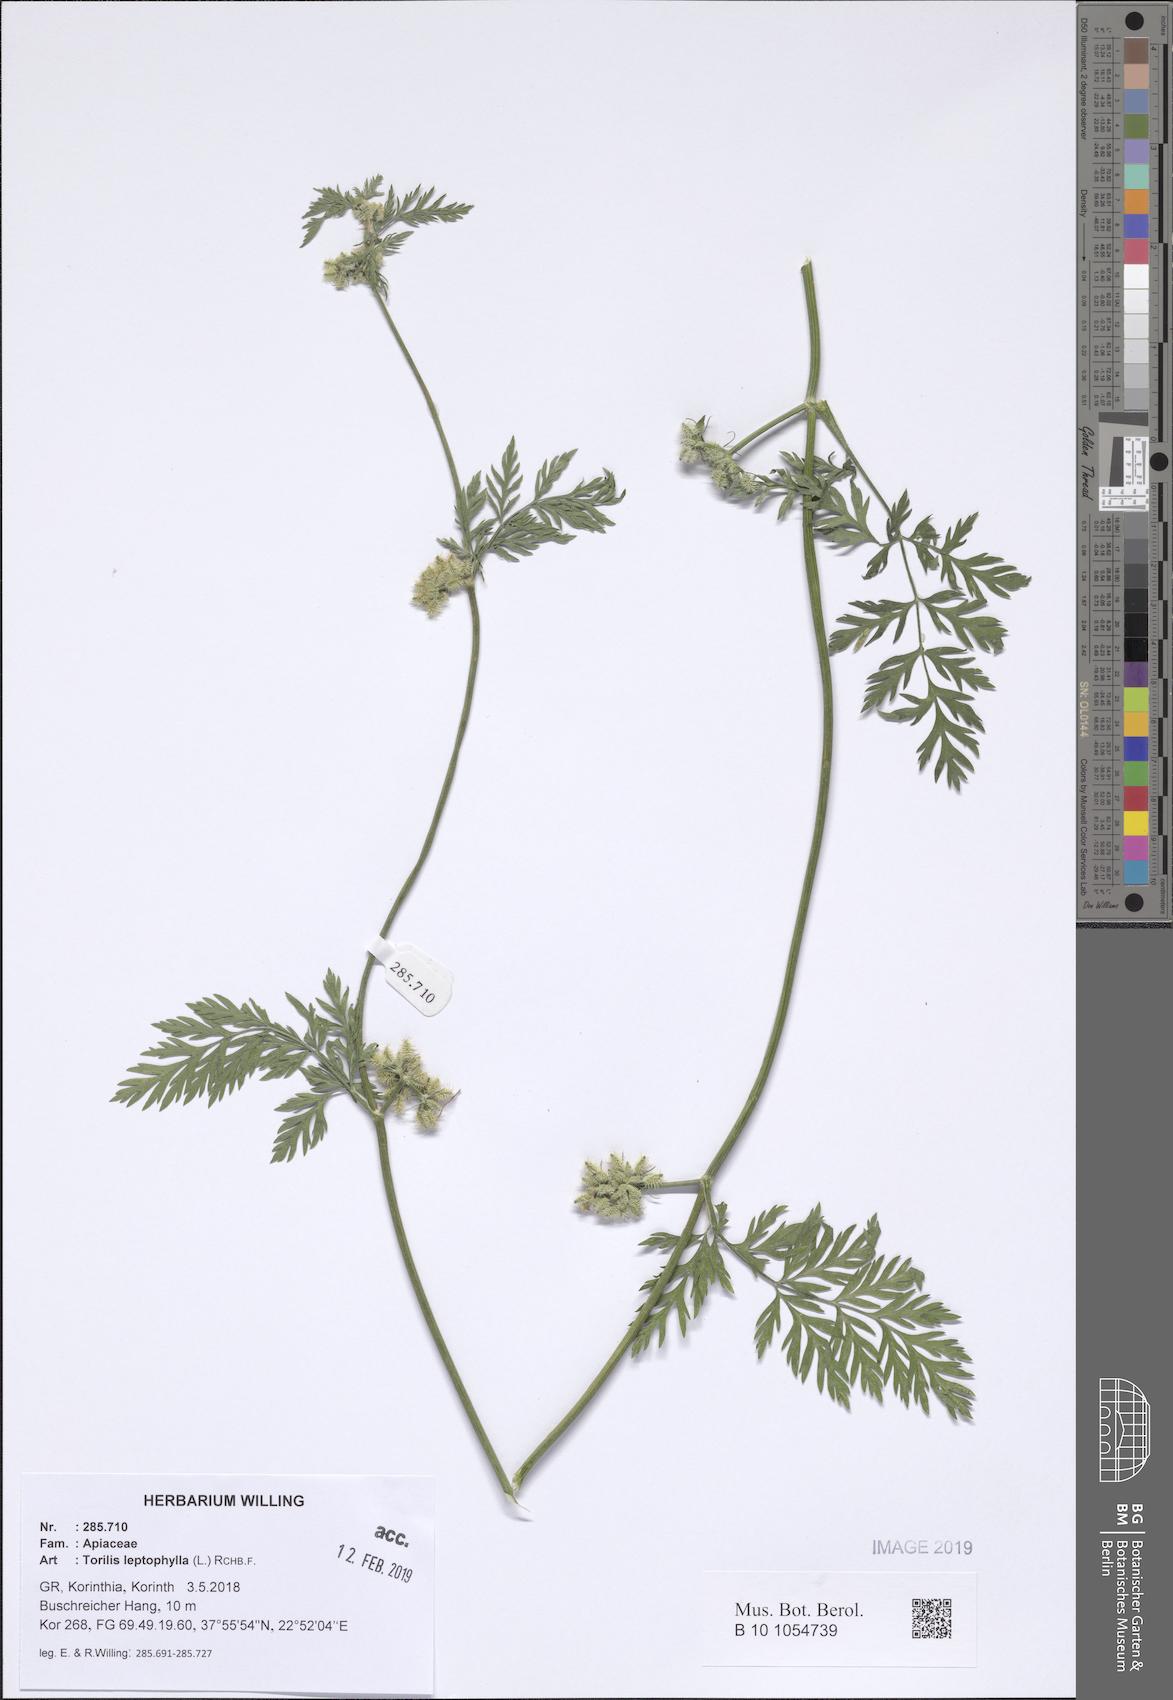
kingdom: Plantae
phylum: Tracheophyta
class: Magnoliopsida
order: Apiales
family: Apiaceae
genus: Torilis
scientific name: Torilis leptophylla
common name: Bristlefruit hedgeparsley
